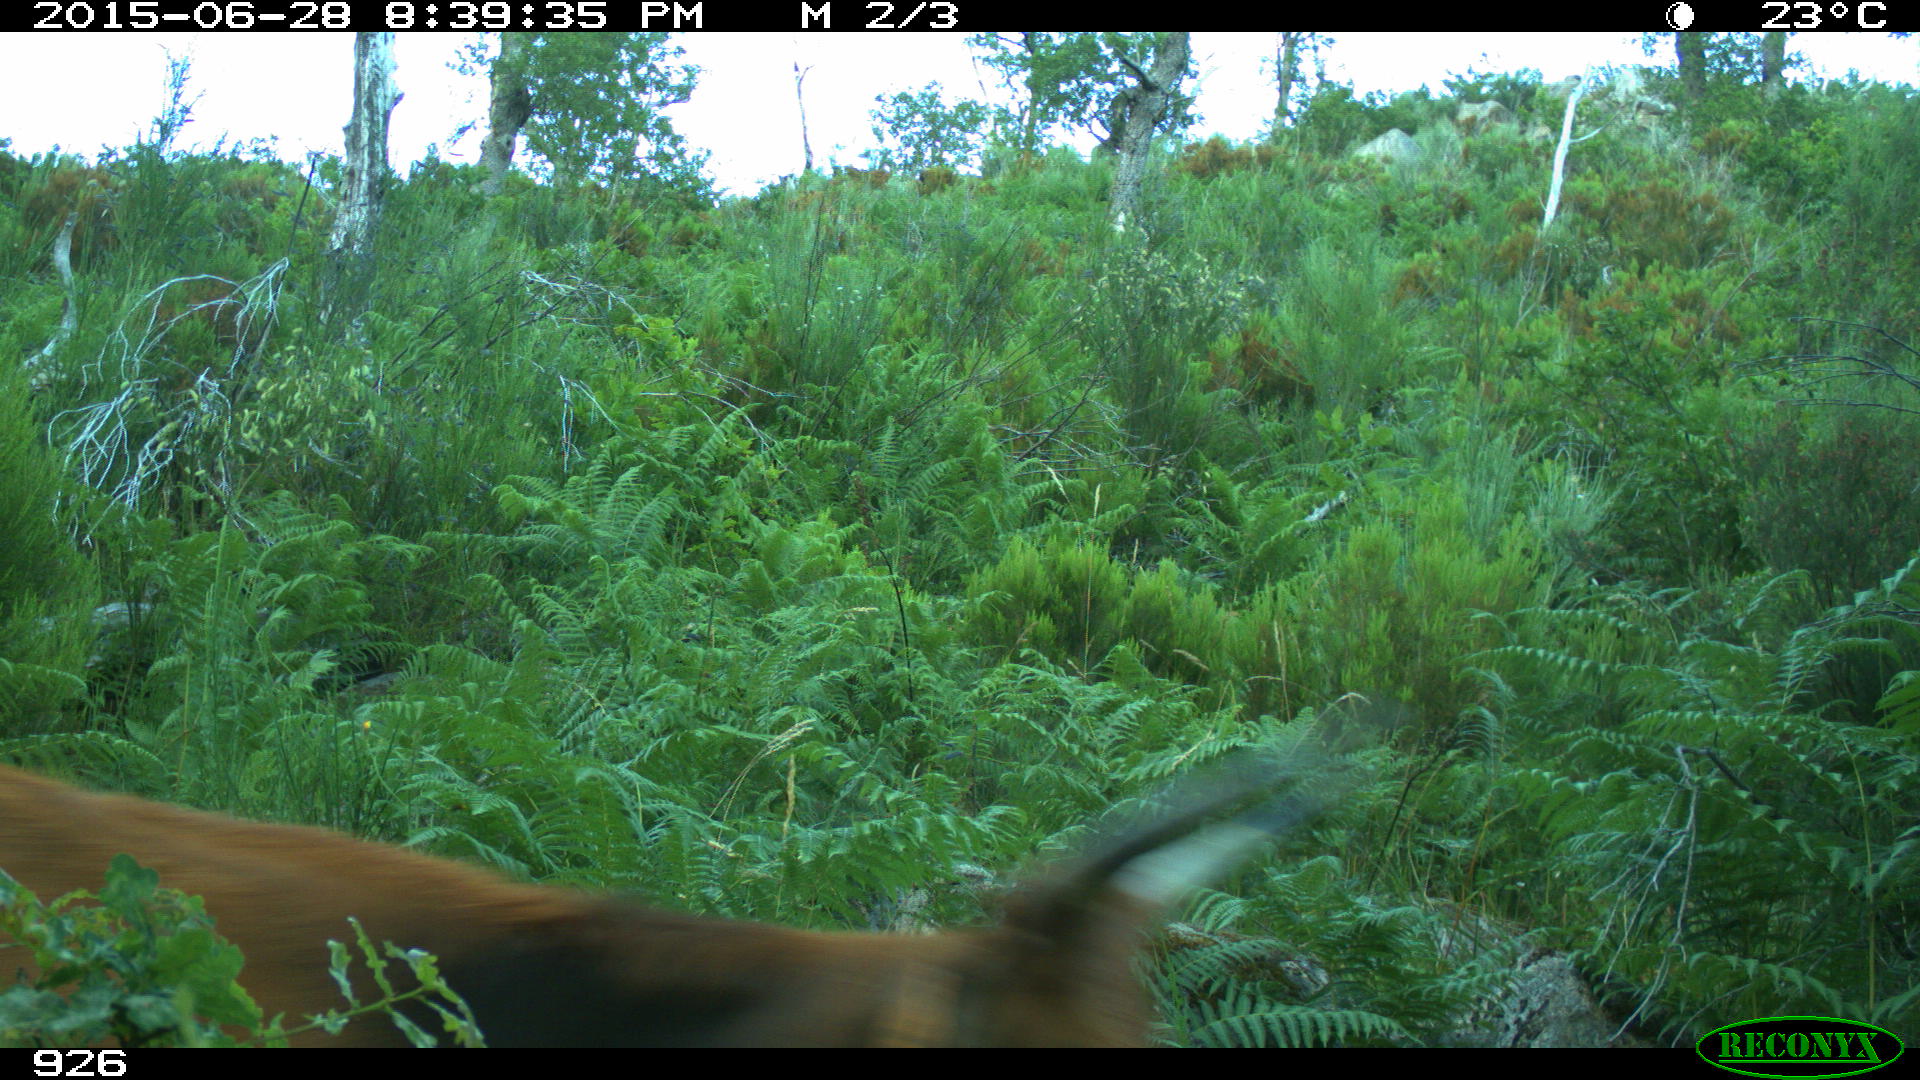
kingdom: Animalia
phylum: Chordata
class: Mammalia
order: Artiodactyla
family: Bovidae
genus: Bos
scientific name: Bos taurus
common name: Domesticated cattle
